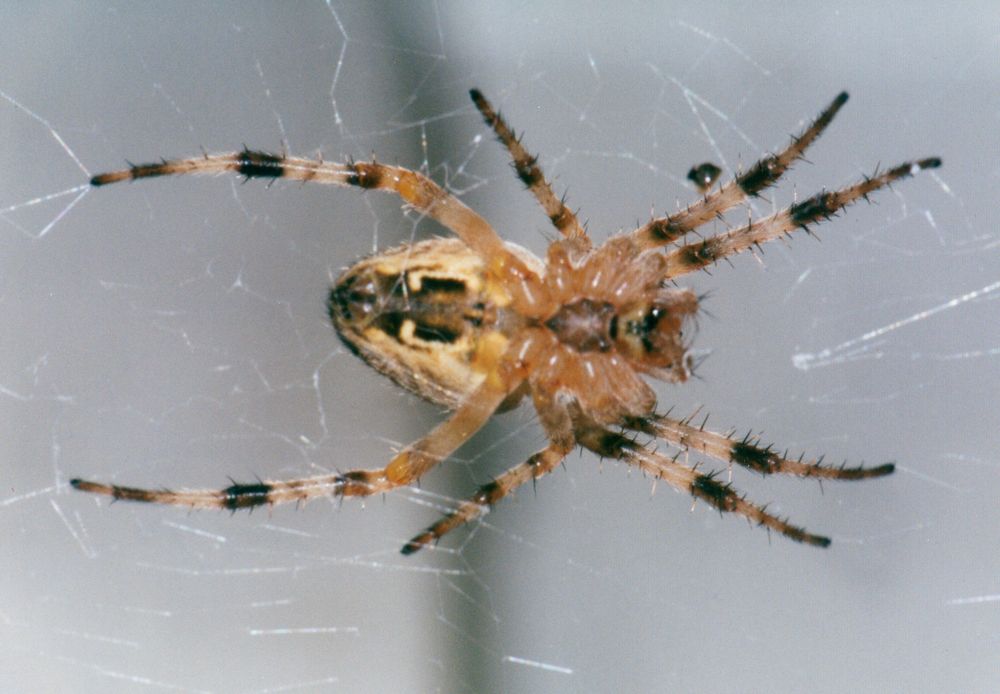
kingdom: Animalia
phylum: Arthropoda
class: Arachnida
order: Araneae
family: Araneidae
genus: Larinioides
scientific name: Larinioides
